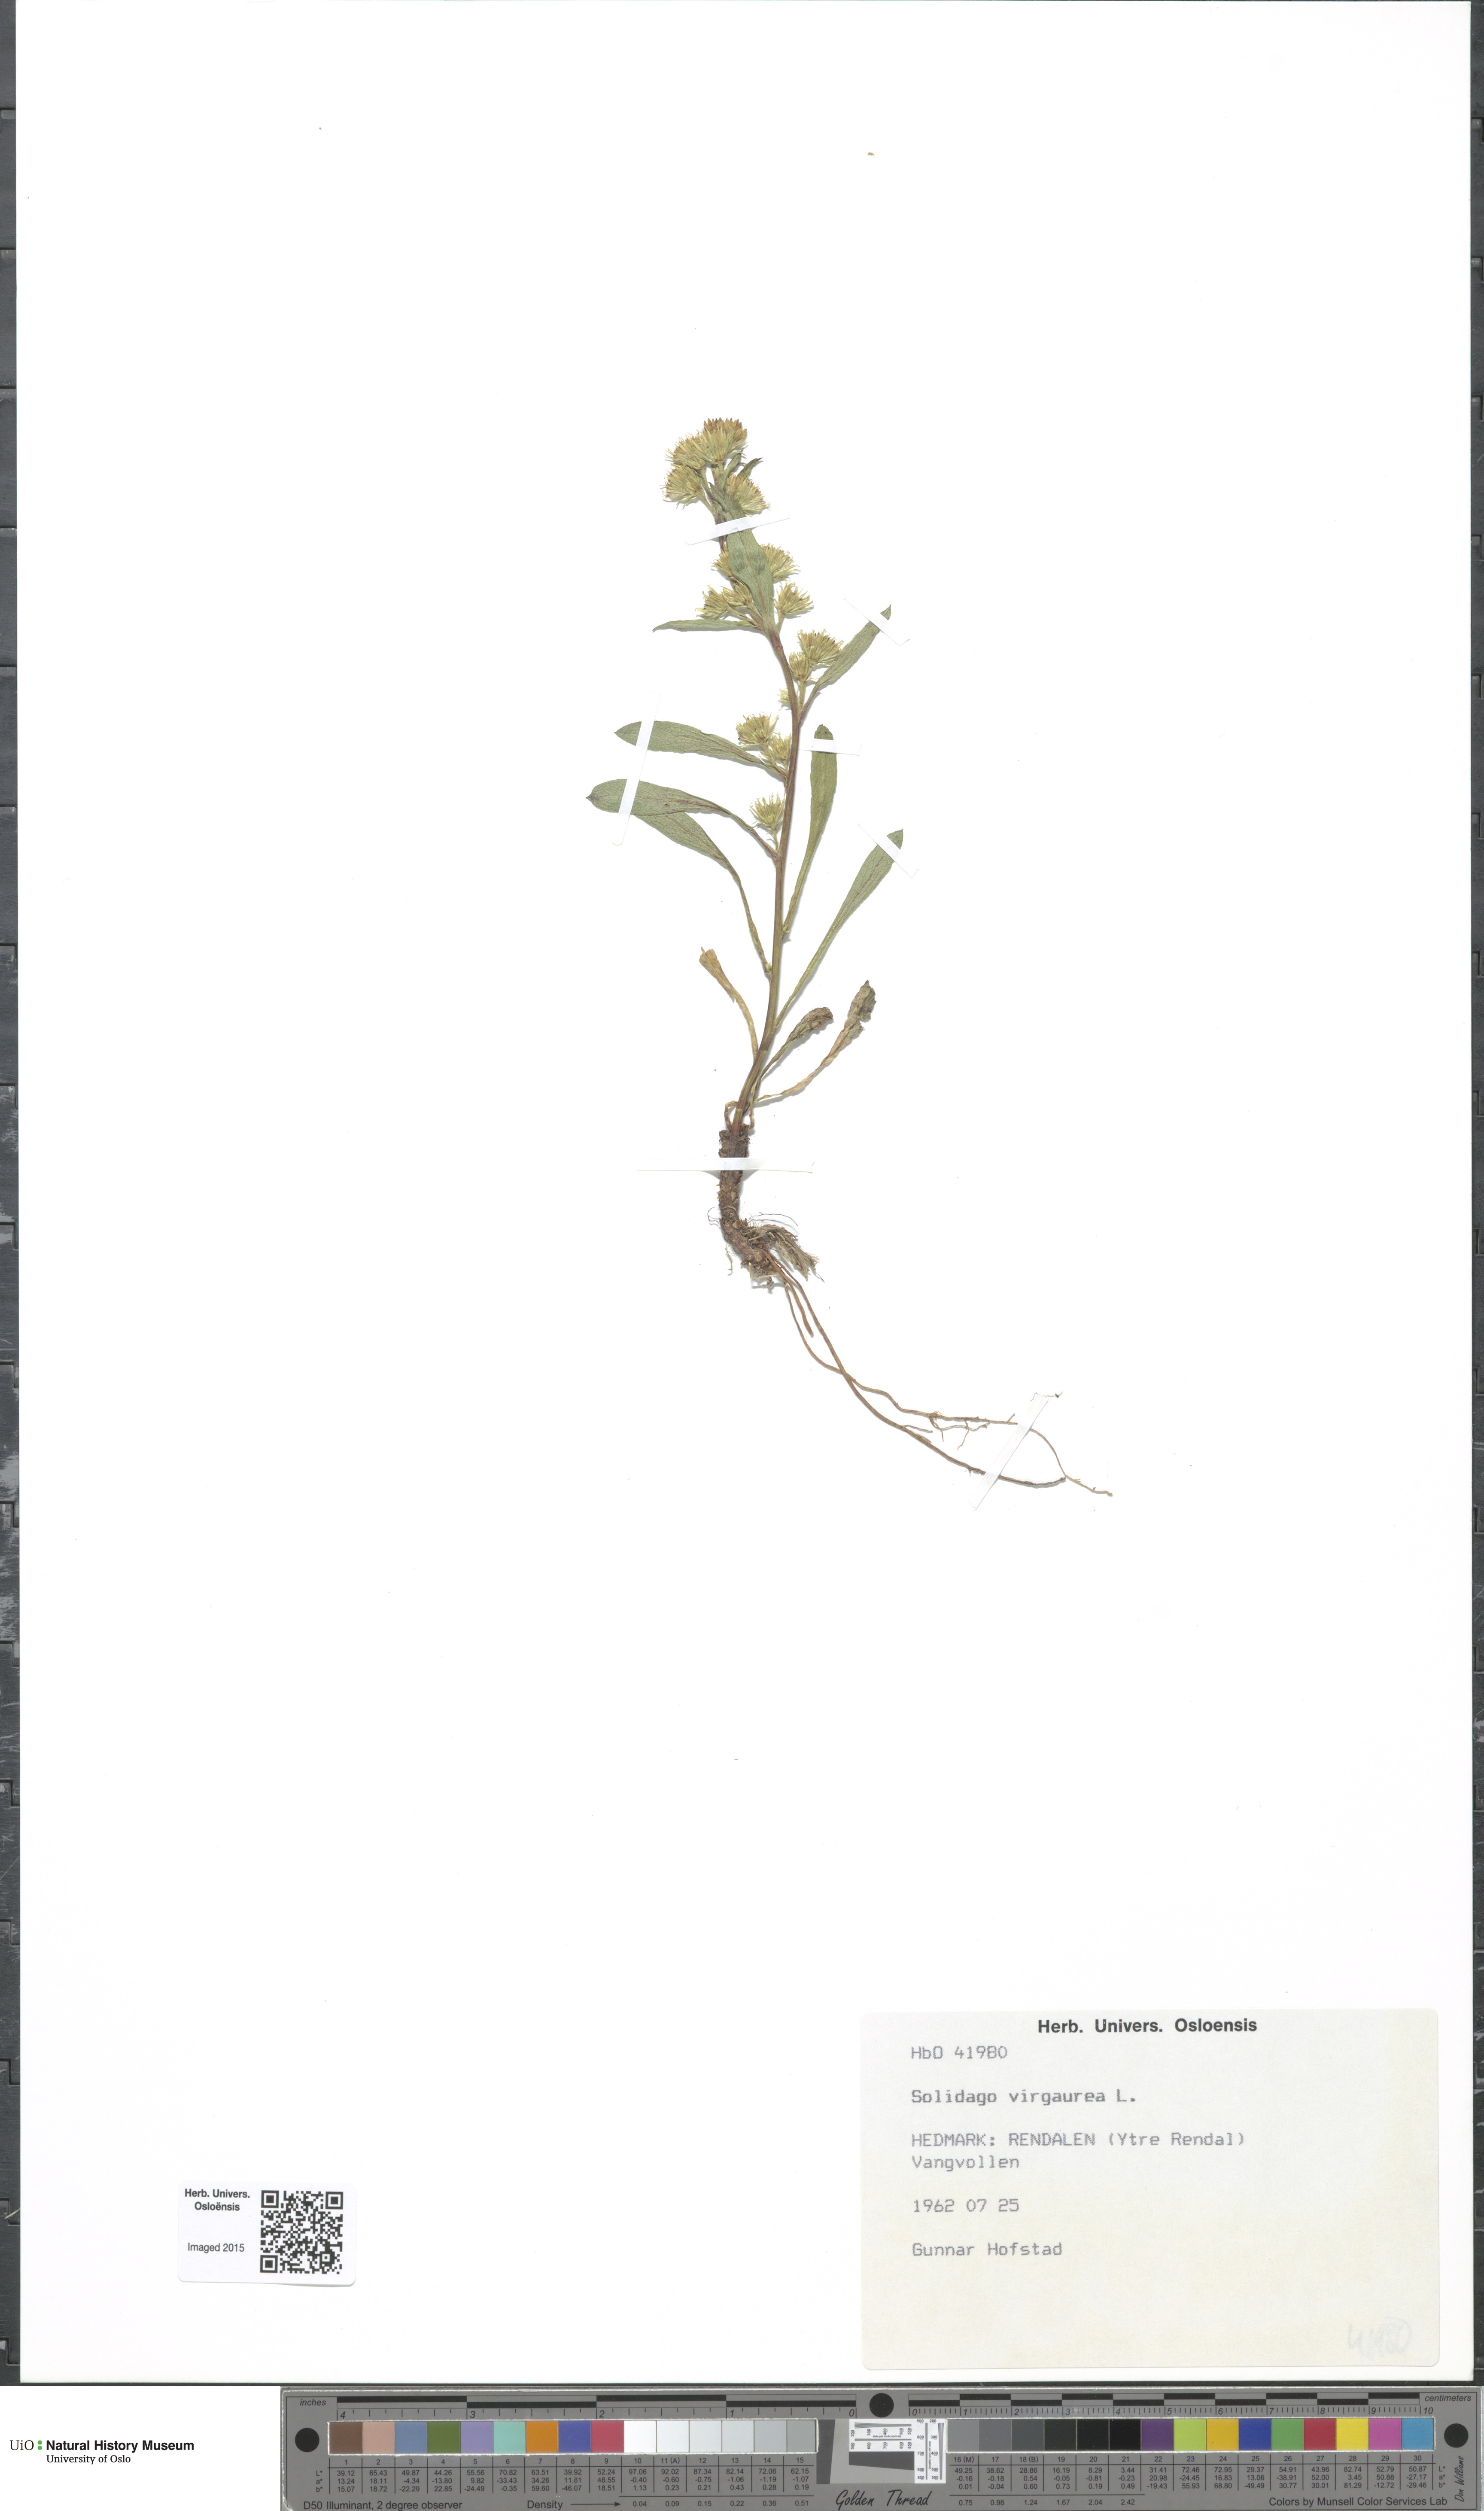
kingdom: Plantae
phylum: Tracheophyta
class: Magnoliopsida
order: Asterales
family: Asteraceae
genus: Solidago
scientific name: Solidago virgaurea
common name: Goldenrod
